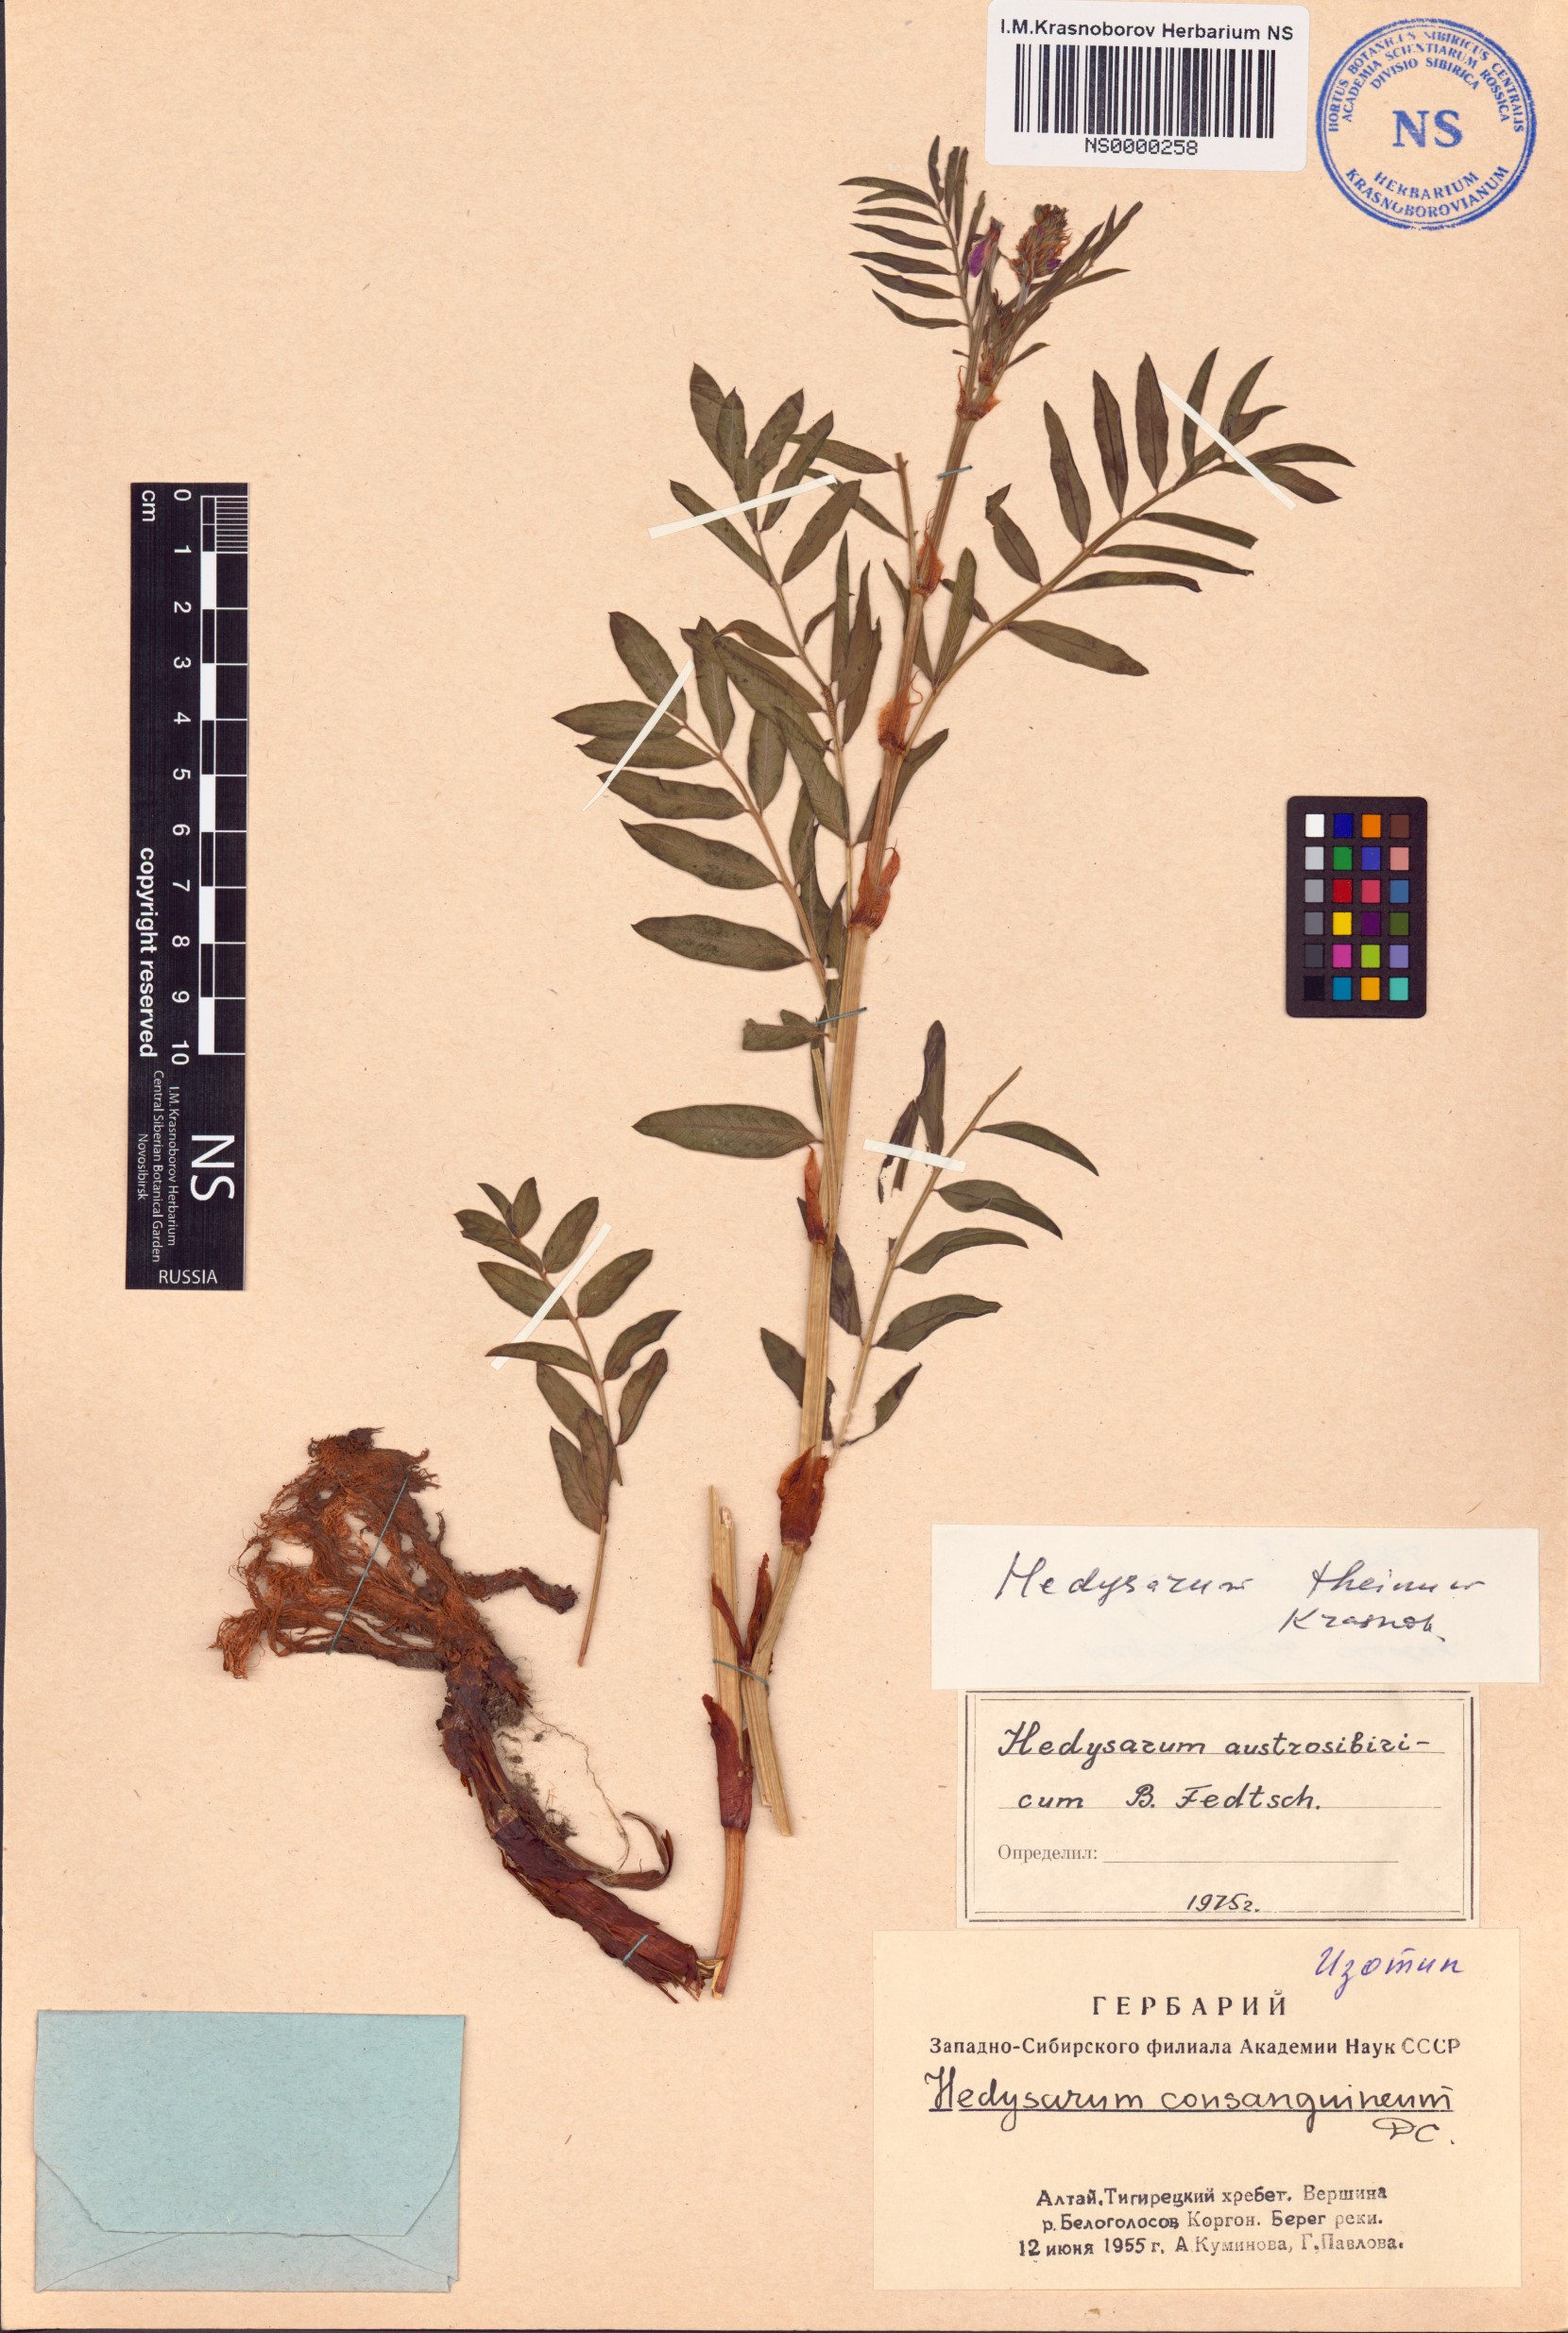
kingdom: Plantae
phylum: Tracheophyta
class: Magnoliopsida
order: Fabales
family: Fabaceae
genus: Hedysarum
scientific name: Hedysarum theinum
